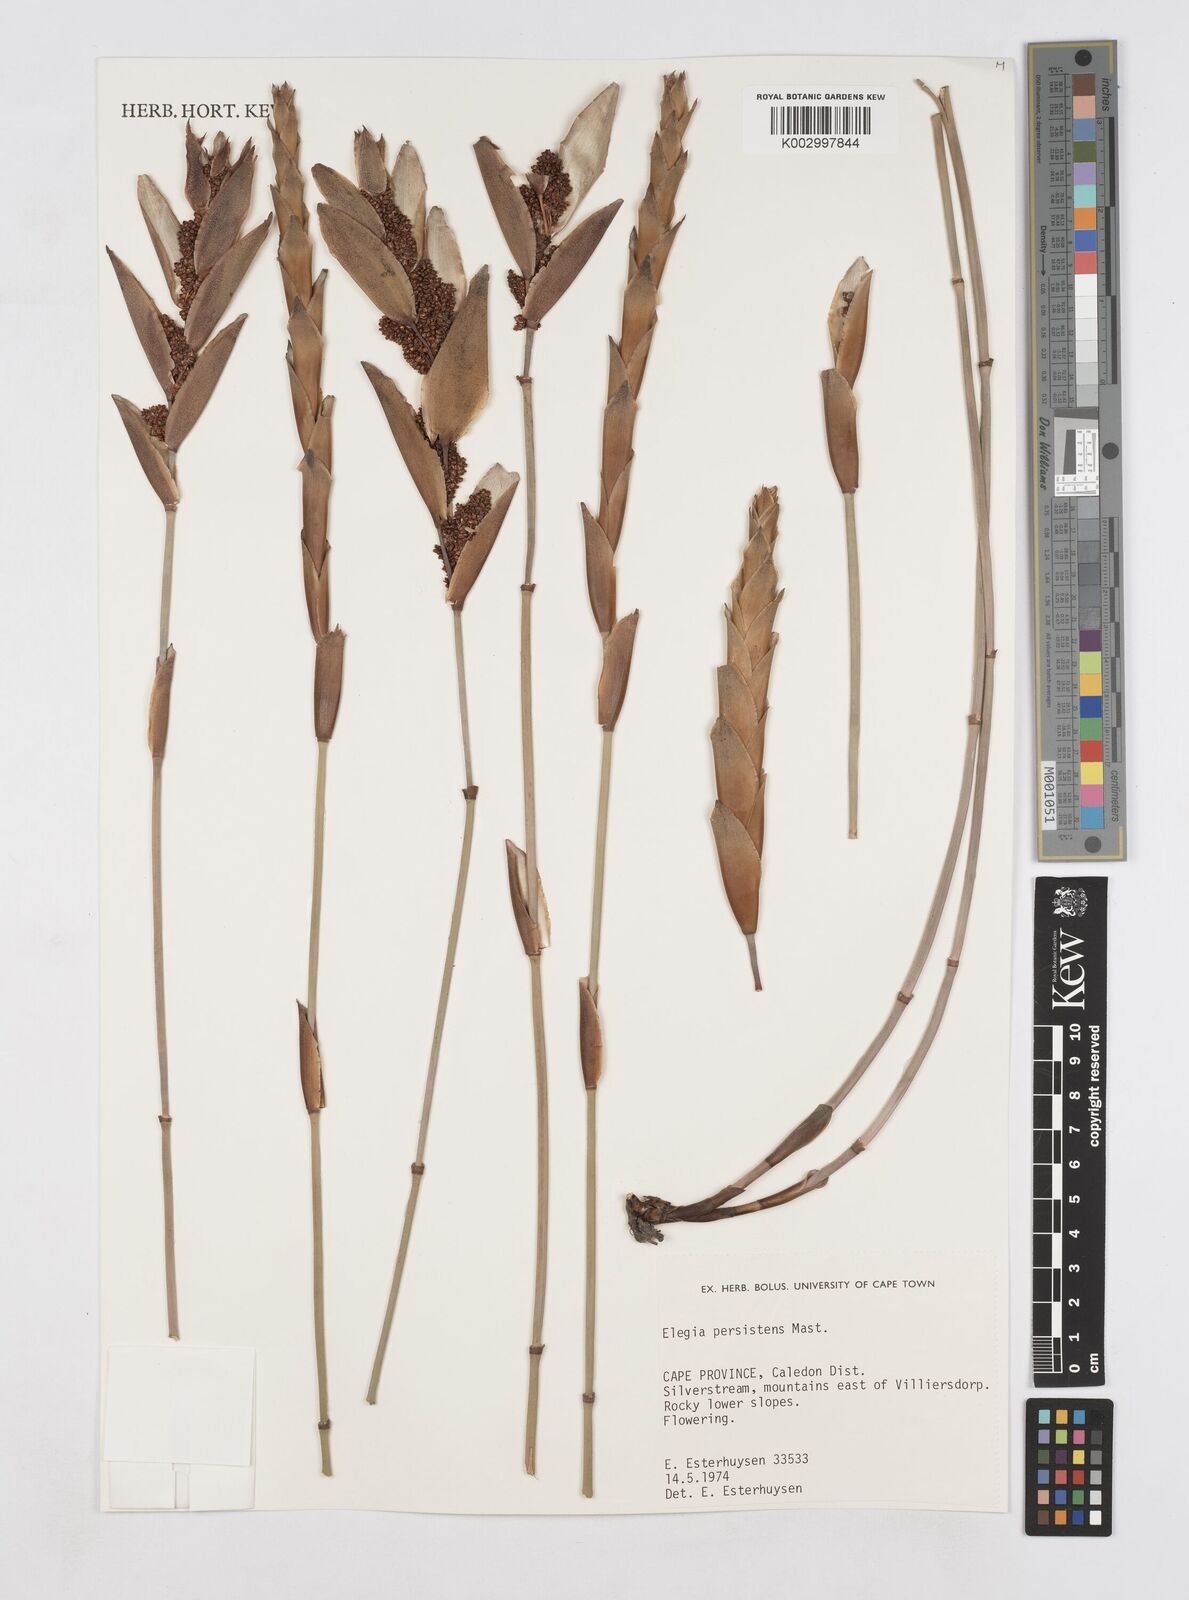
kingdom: Plantae
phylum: Tracheophyta
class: Liliopsida
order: Poales
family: Restionaceae
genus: Elegia
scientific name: Elegia persistens
